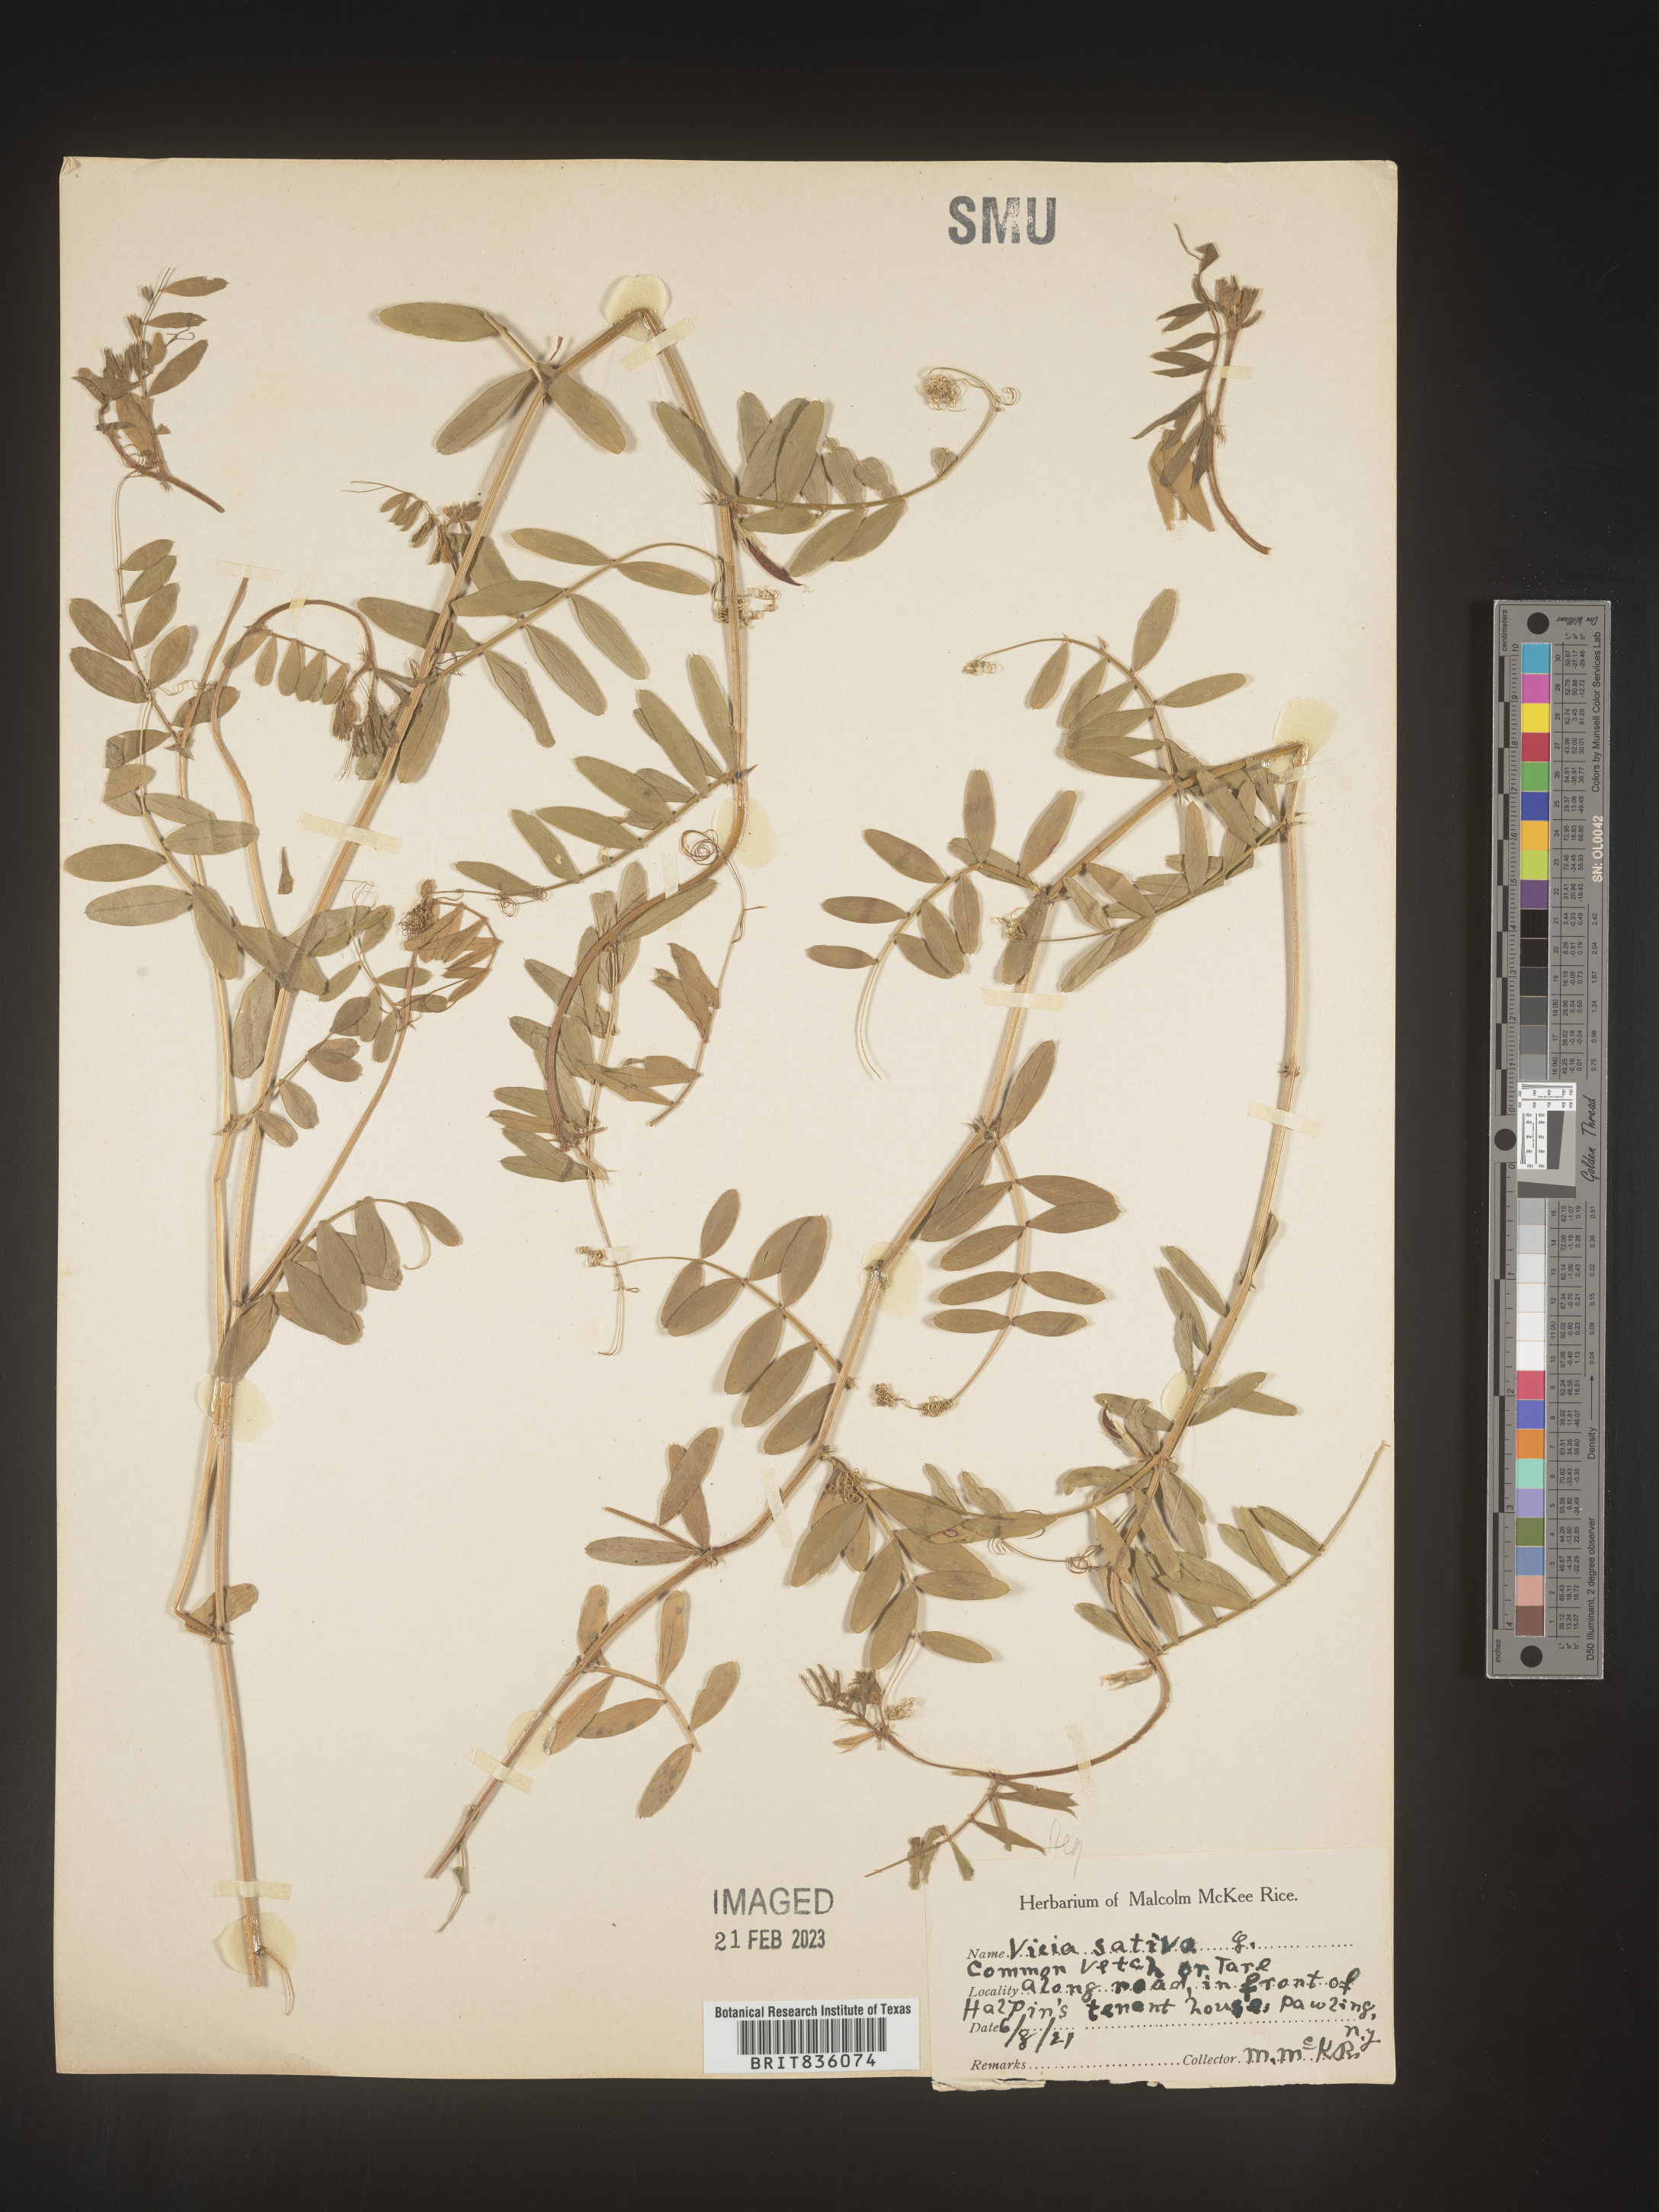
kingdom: Plantae
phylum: Tracheophyta
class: Magnoliopsida
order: Fabales
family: Fabaceae
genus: Vicia
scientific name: Vicia sativa
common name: Garden vetch
